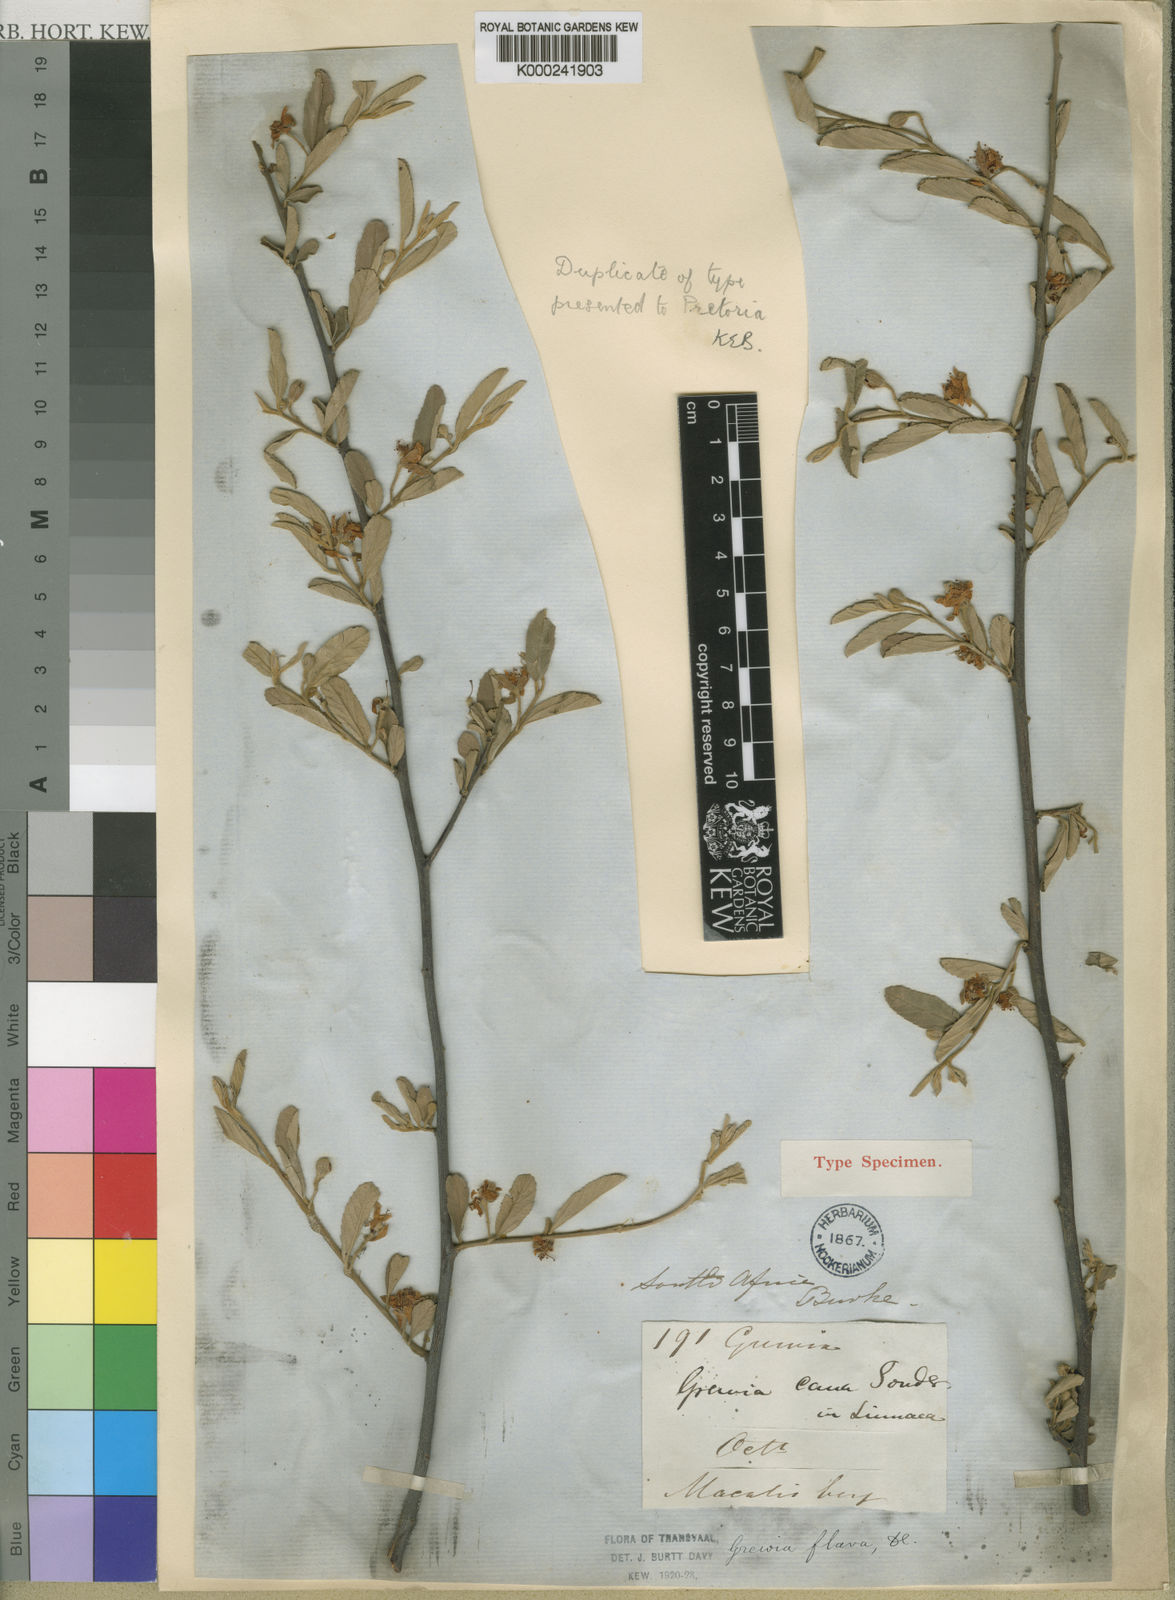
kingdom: Plantae
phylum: Tracheophyta
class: Magnoliopsida
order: Malvales
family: Malvaceae
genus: Grewia
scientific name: Grewia flava
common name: Brandy bush
